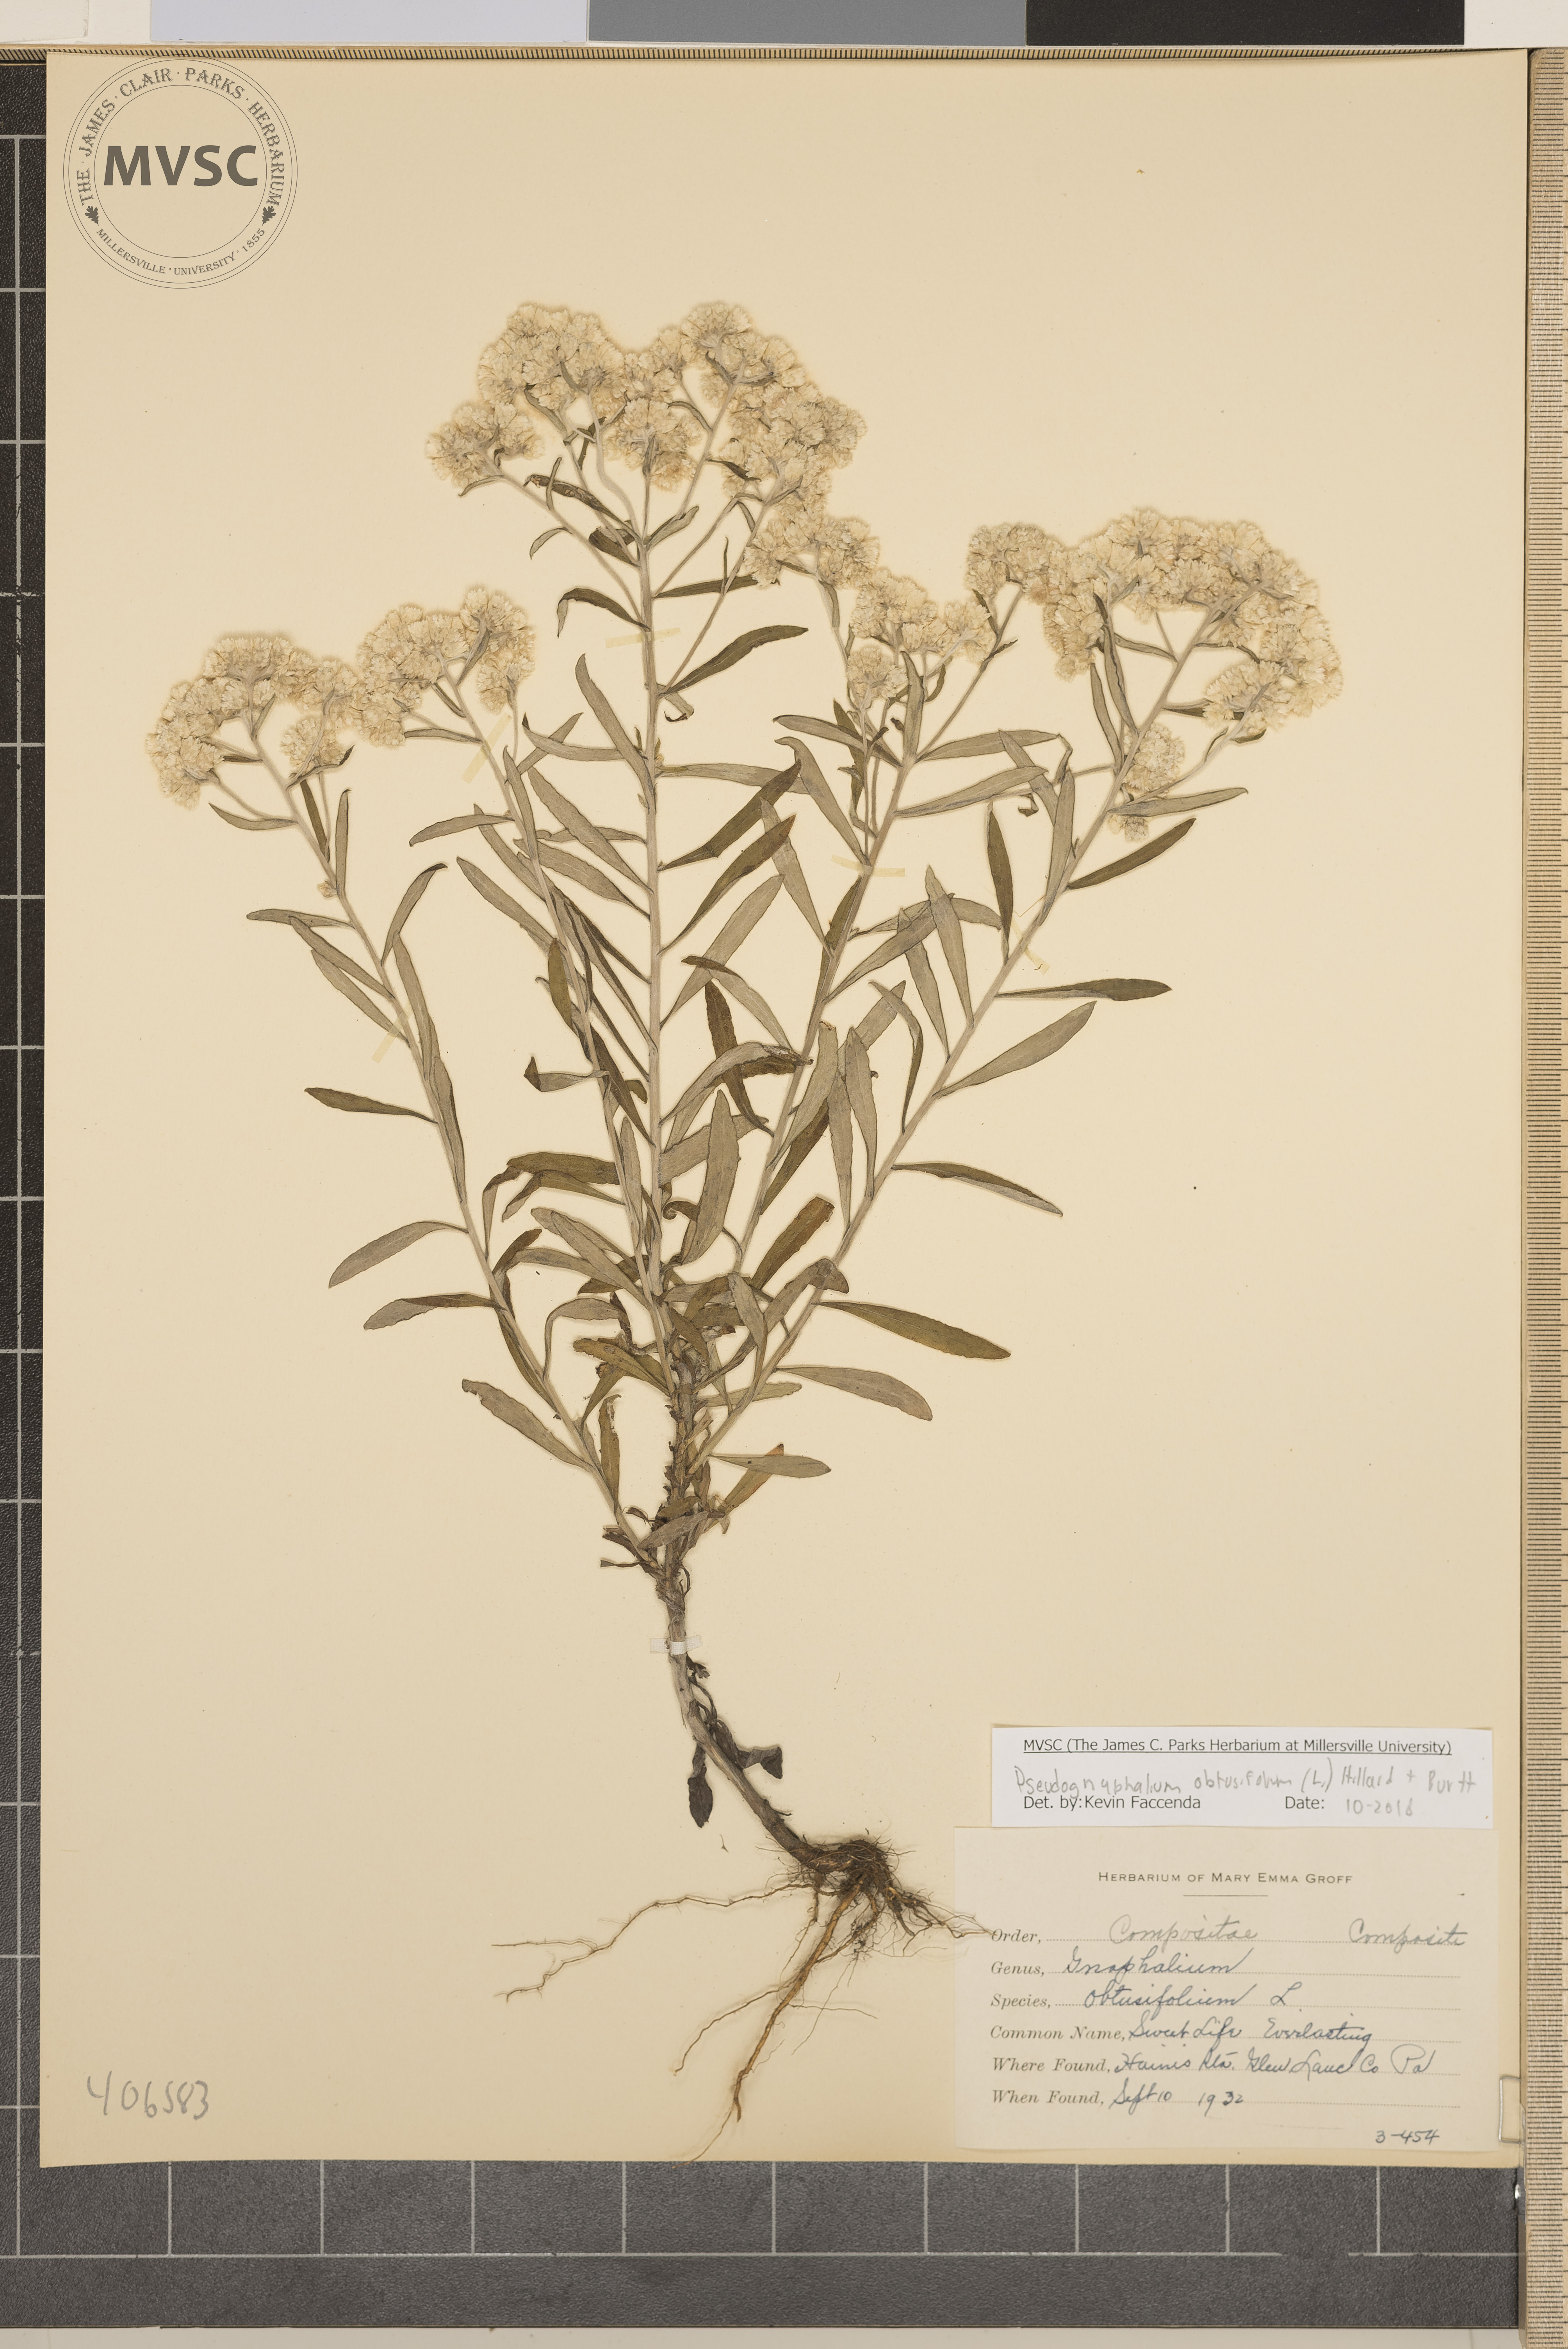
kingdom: Plantae
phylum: Tracheophyta
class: Magnoliopsida
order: Asterales
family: Asteraceae
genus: Pseudognaphalium
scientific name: Pseudognaphalium obtusifolium
